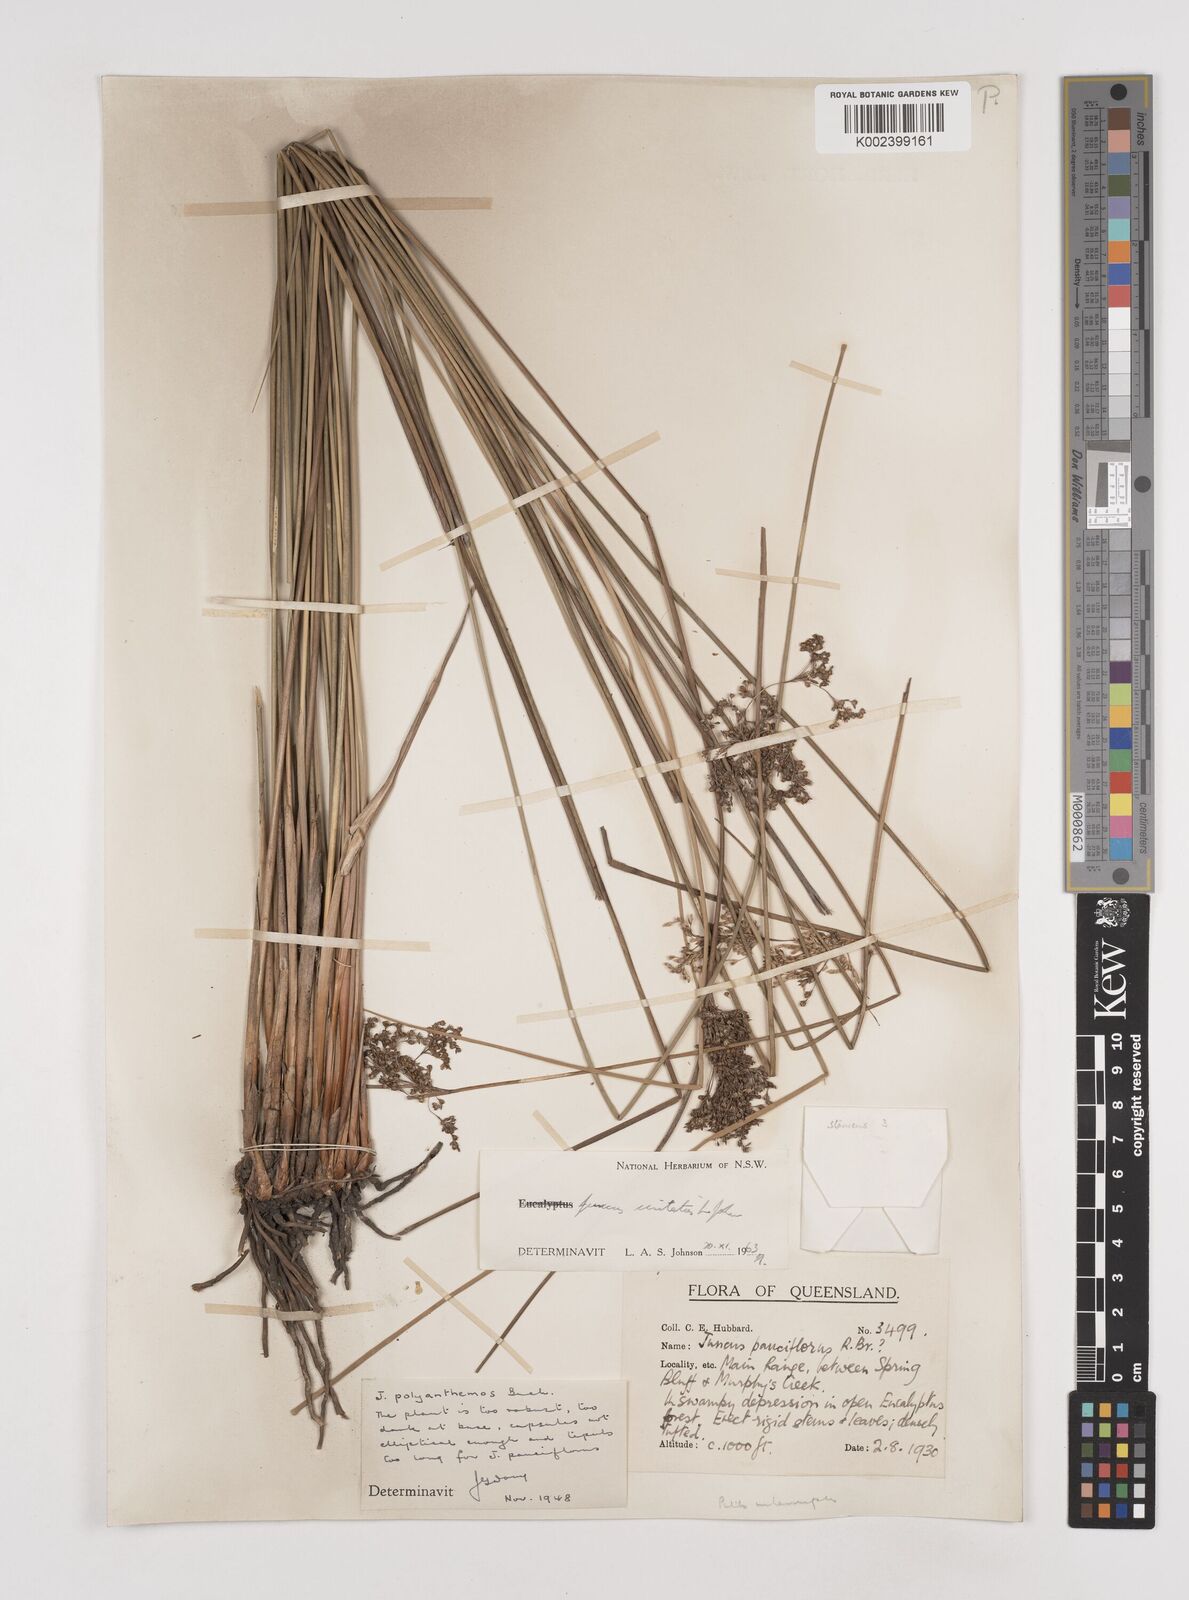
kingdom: Plantae
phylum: Tracheophyta
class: Liliopsida
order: Poales
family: Juncaceae
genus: Juncus
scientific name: Juncus usitatus
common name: Rush
